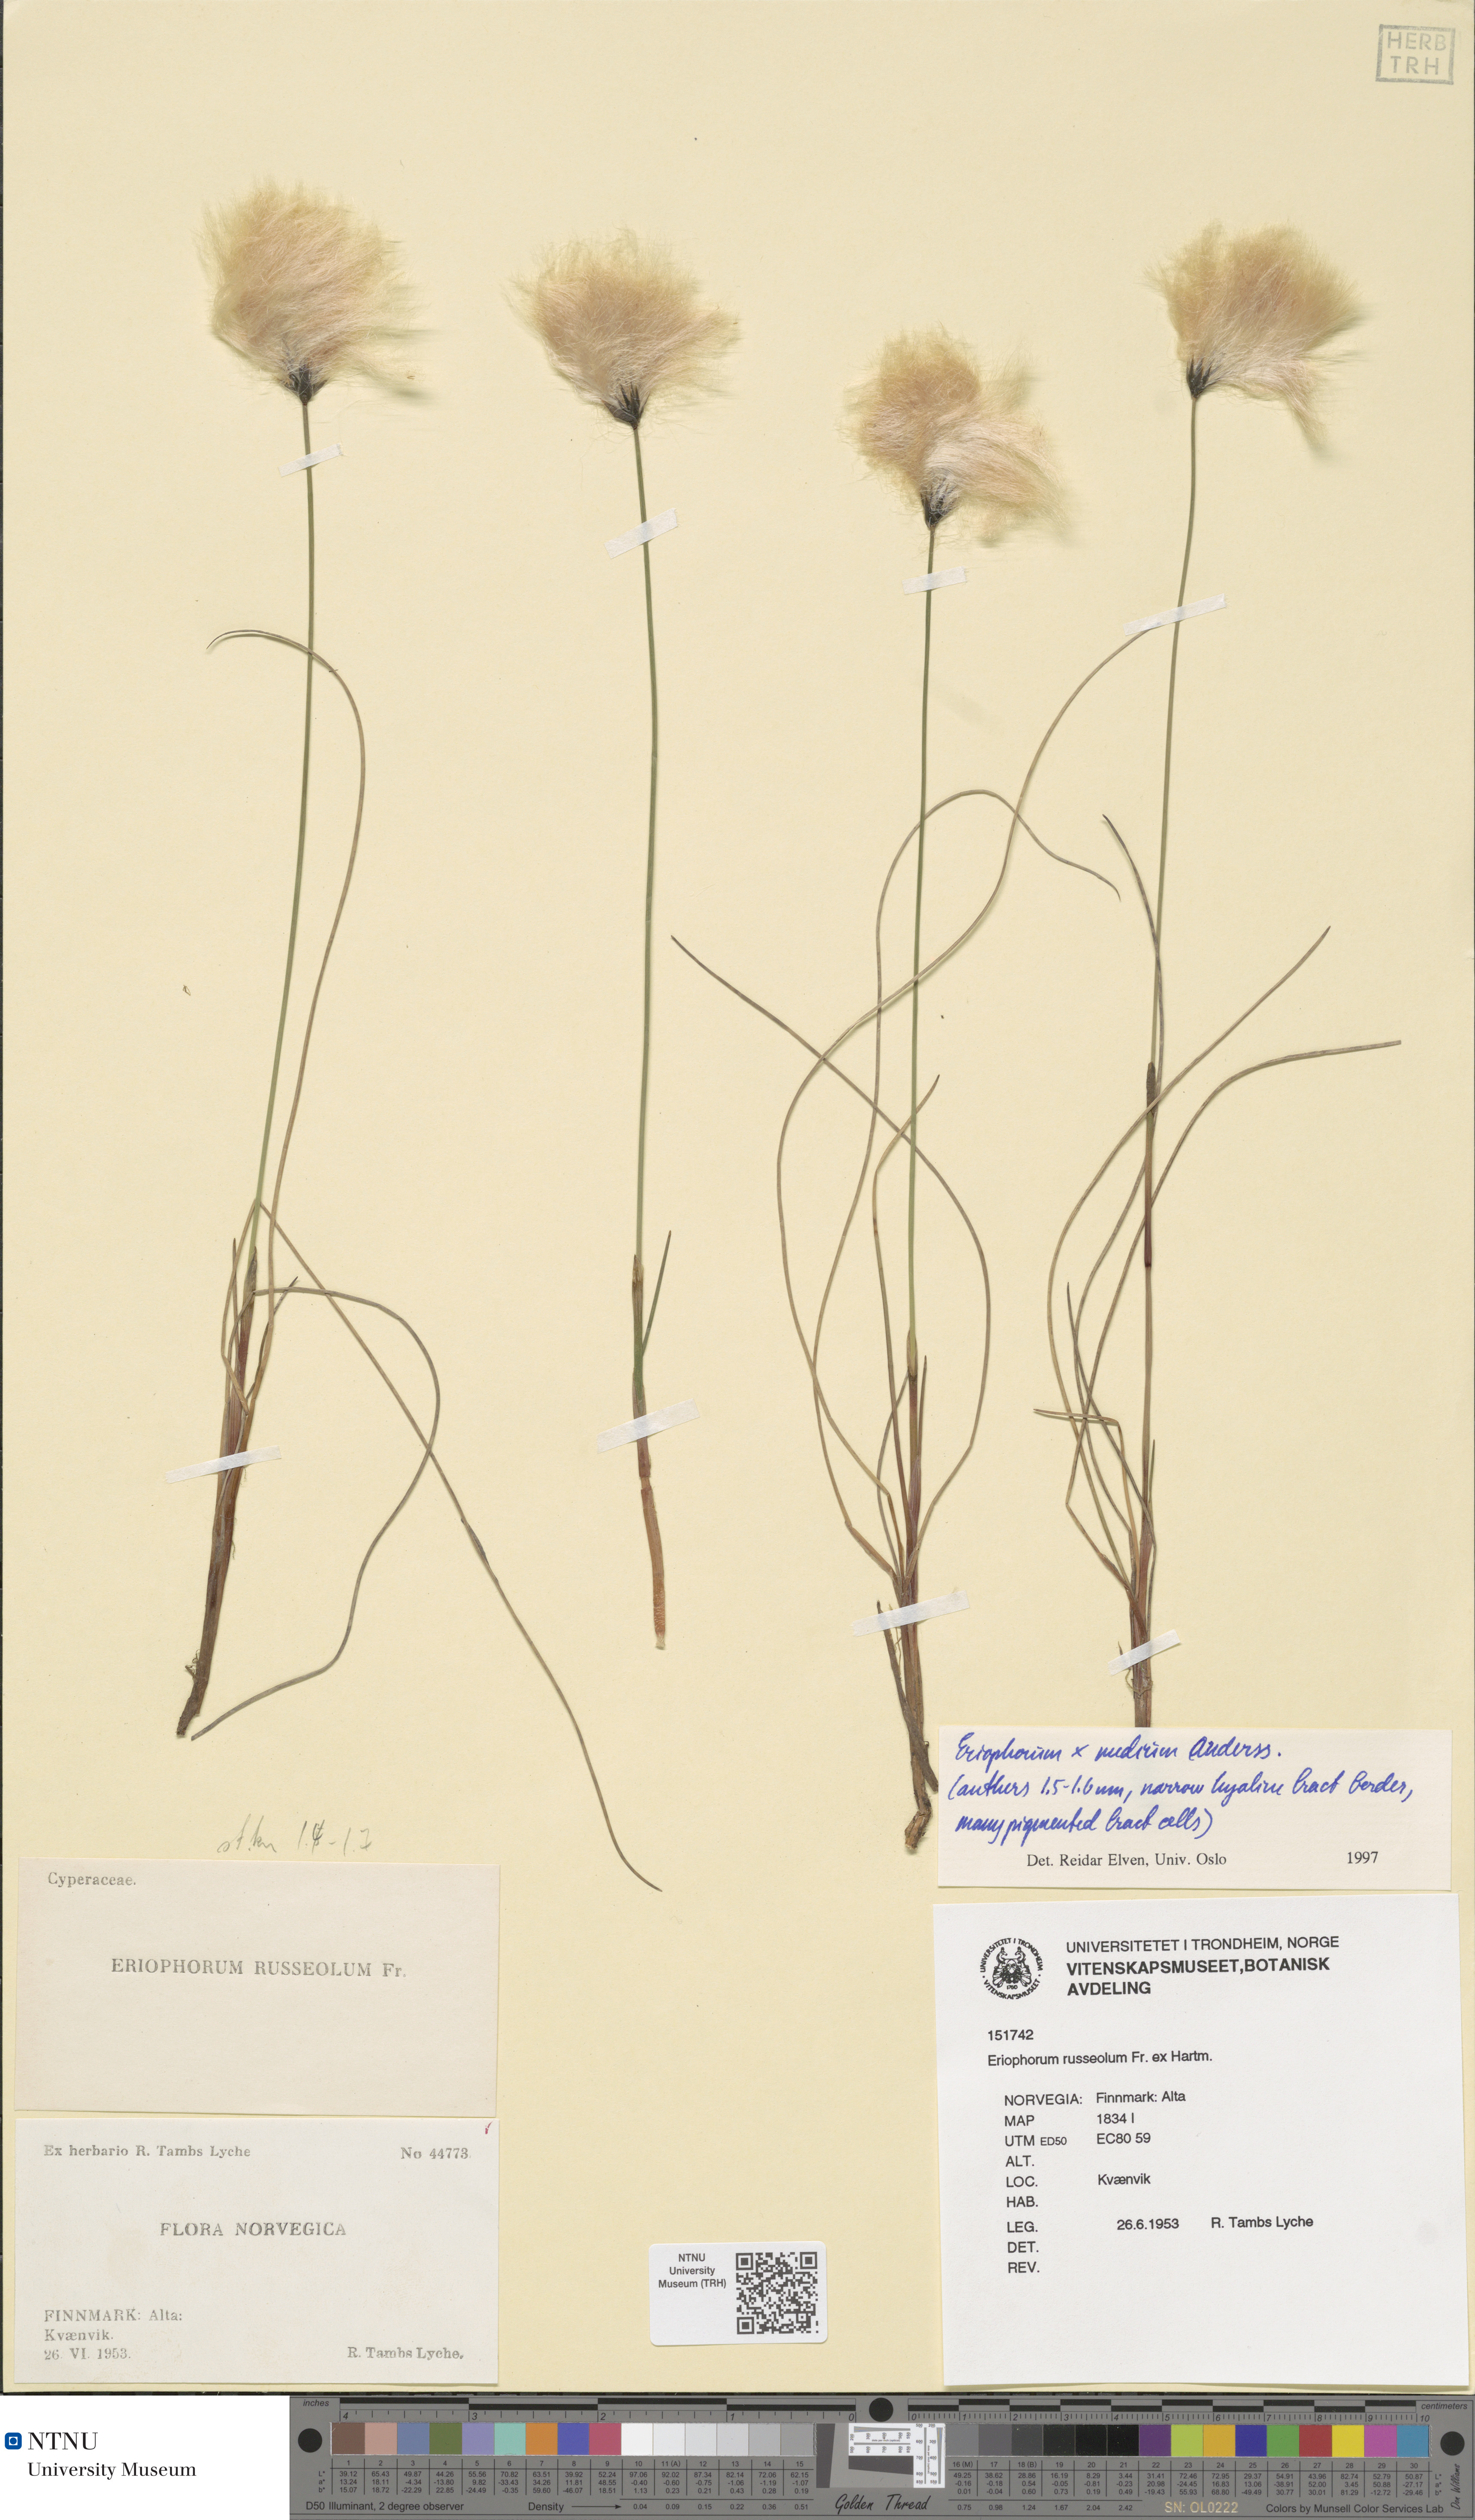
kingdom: Plantae
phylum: Tracheophyta
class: Liliopsida
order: Poales
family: Cyperaceae
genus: Eriophorum
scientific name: Eriophorum medium
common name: Intermediate cottongrass
